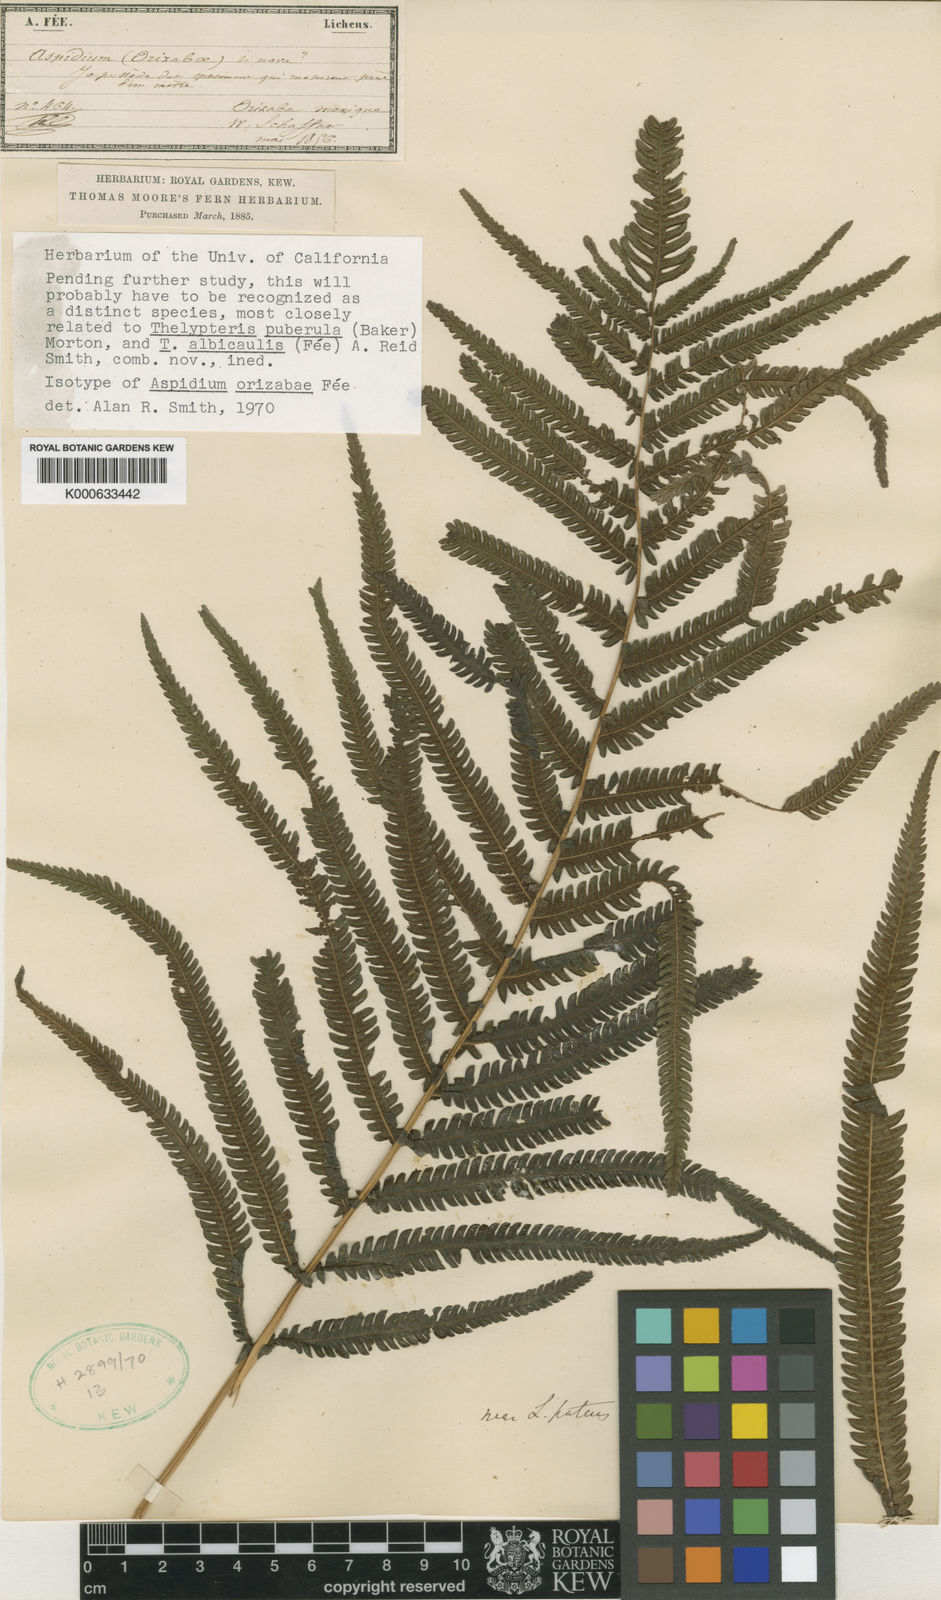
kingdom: Plantae
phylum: Tracheophyta
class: Polypodiopsida
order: Polypodiales
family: Thelypteridaceae
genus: Christella
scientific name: Christella
